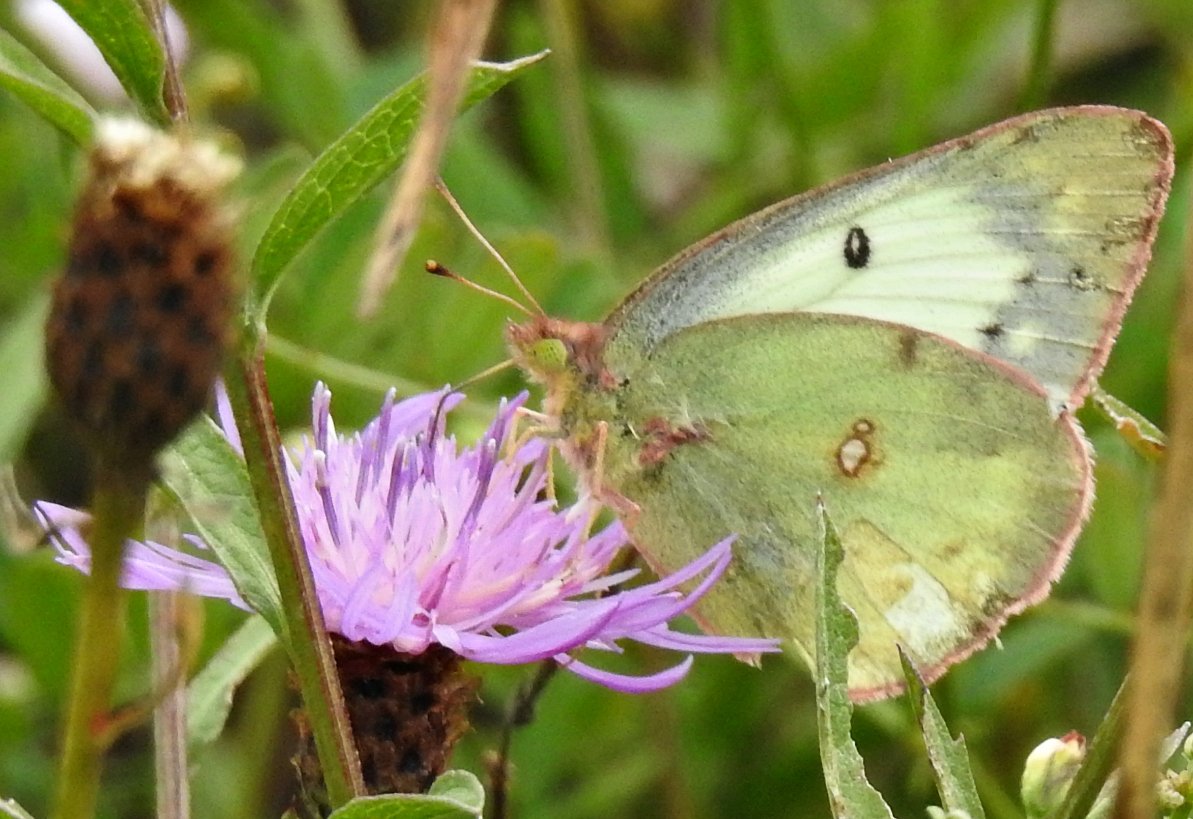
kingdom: Animalia
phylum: Arthropoda
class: Insecta
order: Lepidoptera
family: Pieridae
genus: Colias
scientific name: Colias philodice
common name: Clouded Sulphur
